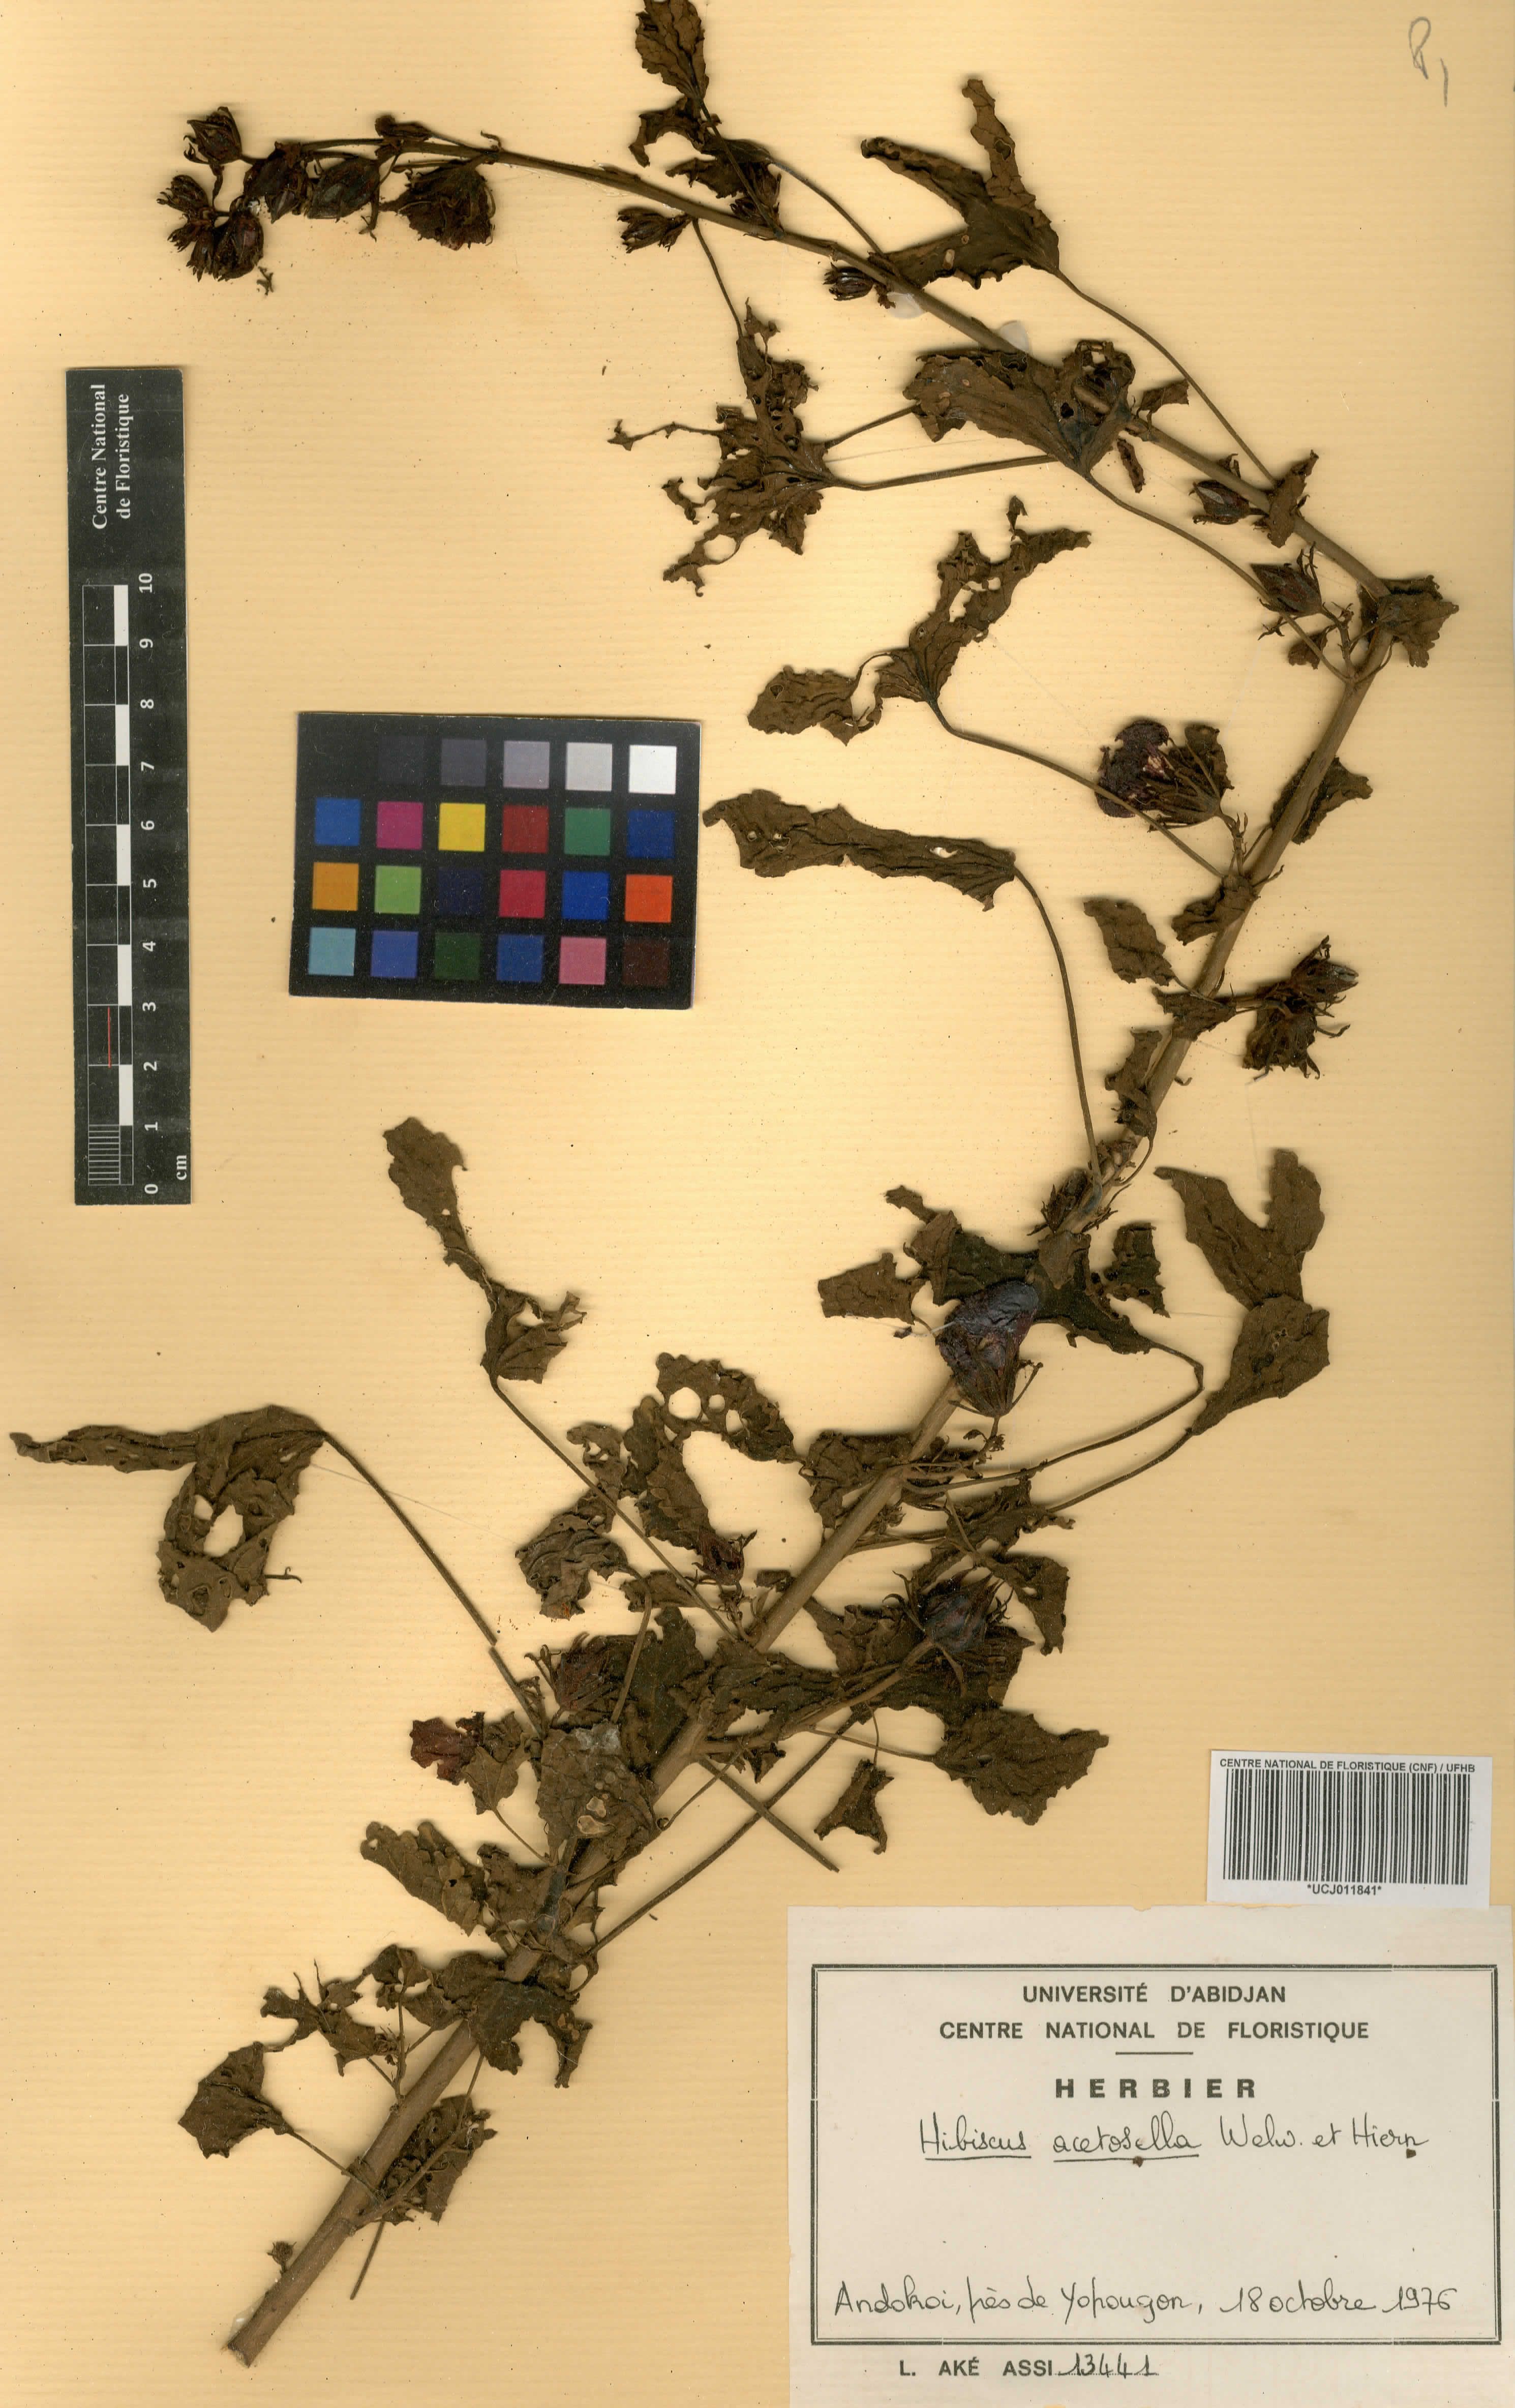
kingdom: Plantae
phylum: Tracheophyta
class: Magnoliopsida
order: Malvales
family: Malvaceae
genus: Hibiscus
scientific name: Hibiscus acetosella
